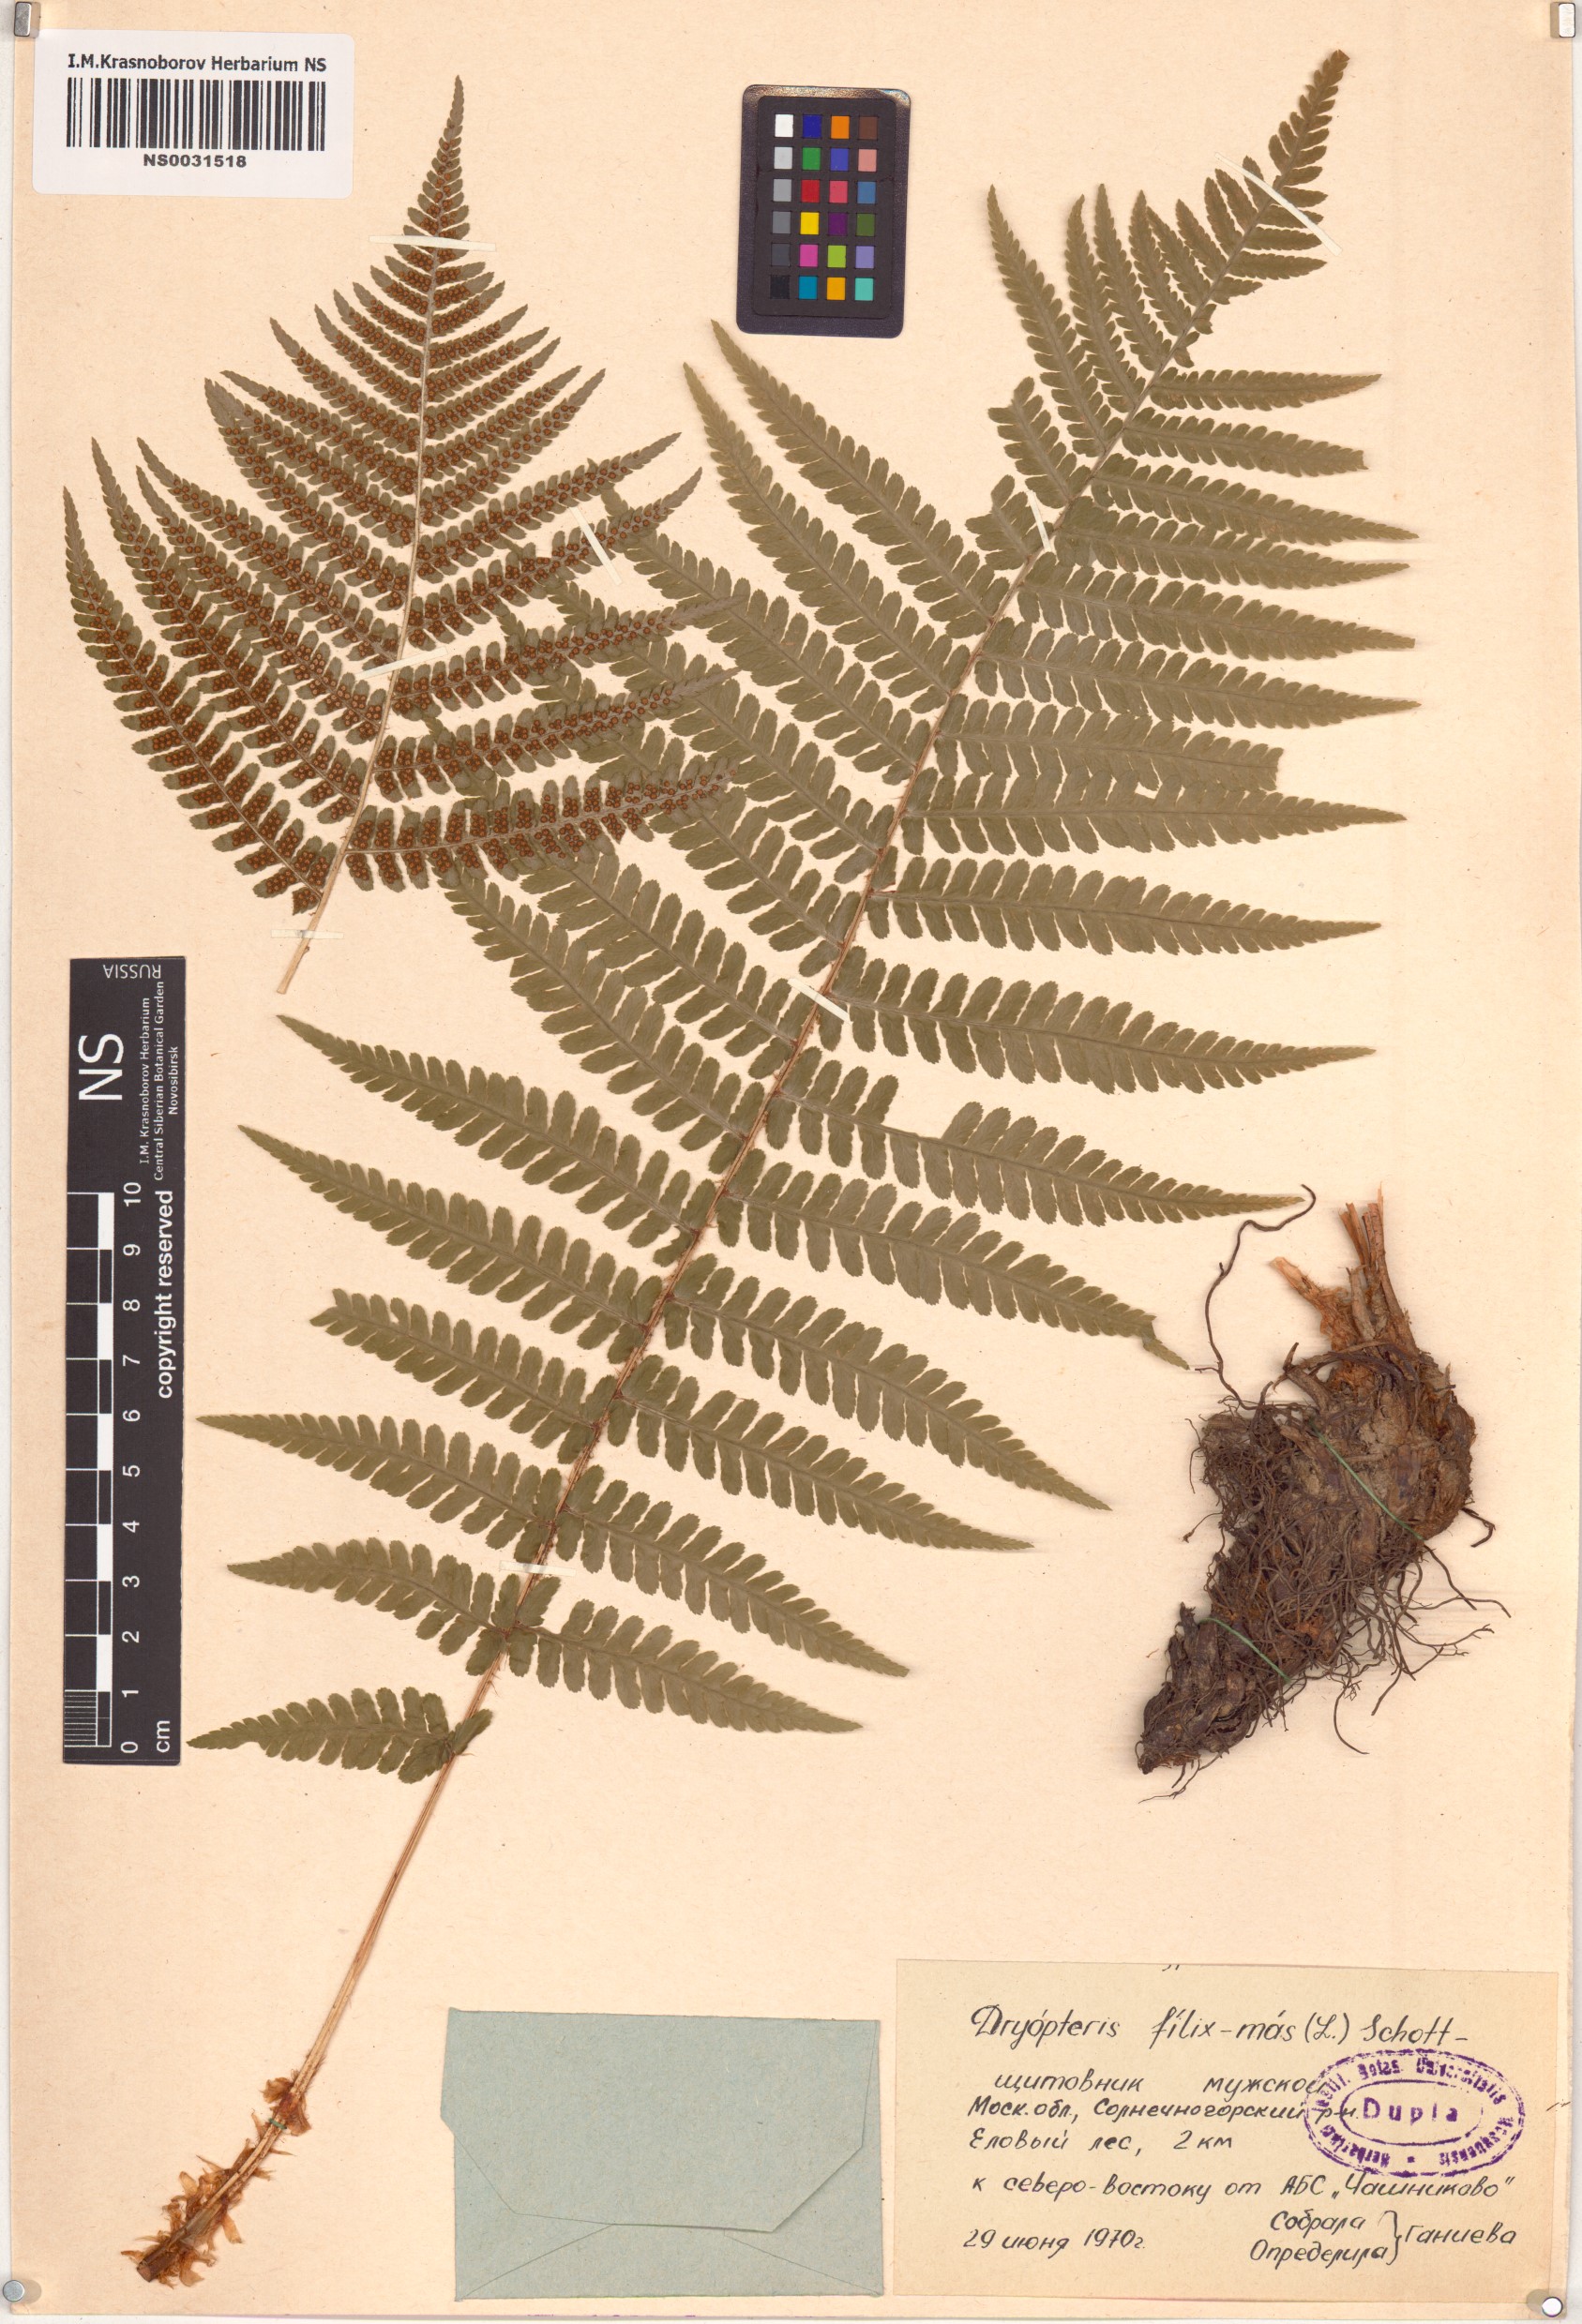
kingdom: Plantae
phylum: Tracheophyta
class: Polypodiopsida
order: Polypodiales
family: Dryopteridaceae
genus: Dryopteris
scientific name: Dryopteris filix-mas
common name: Male fern
